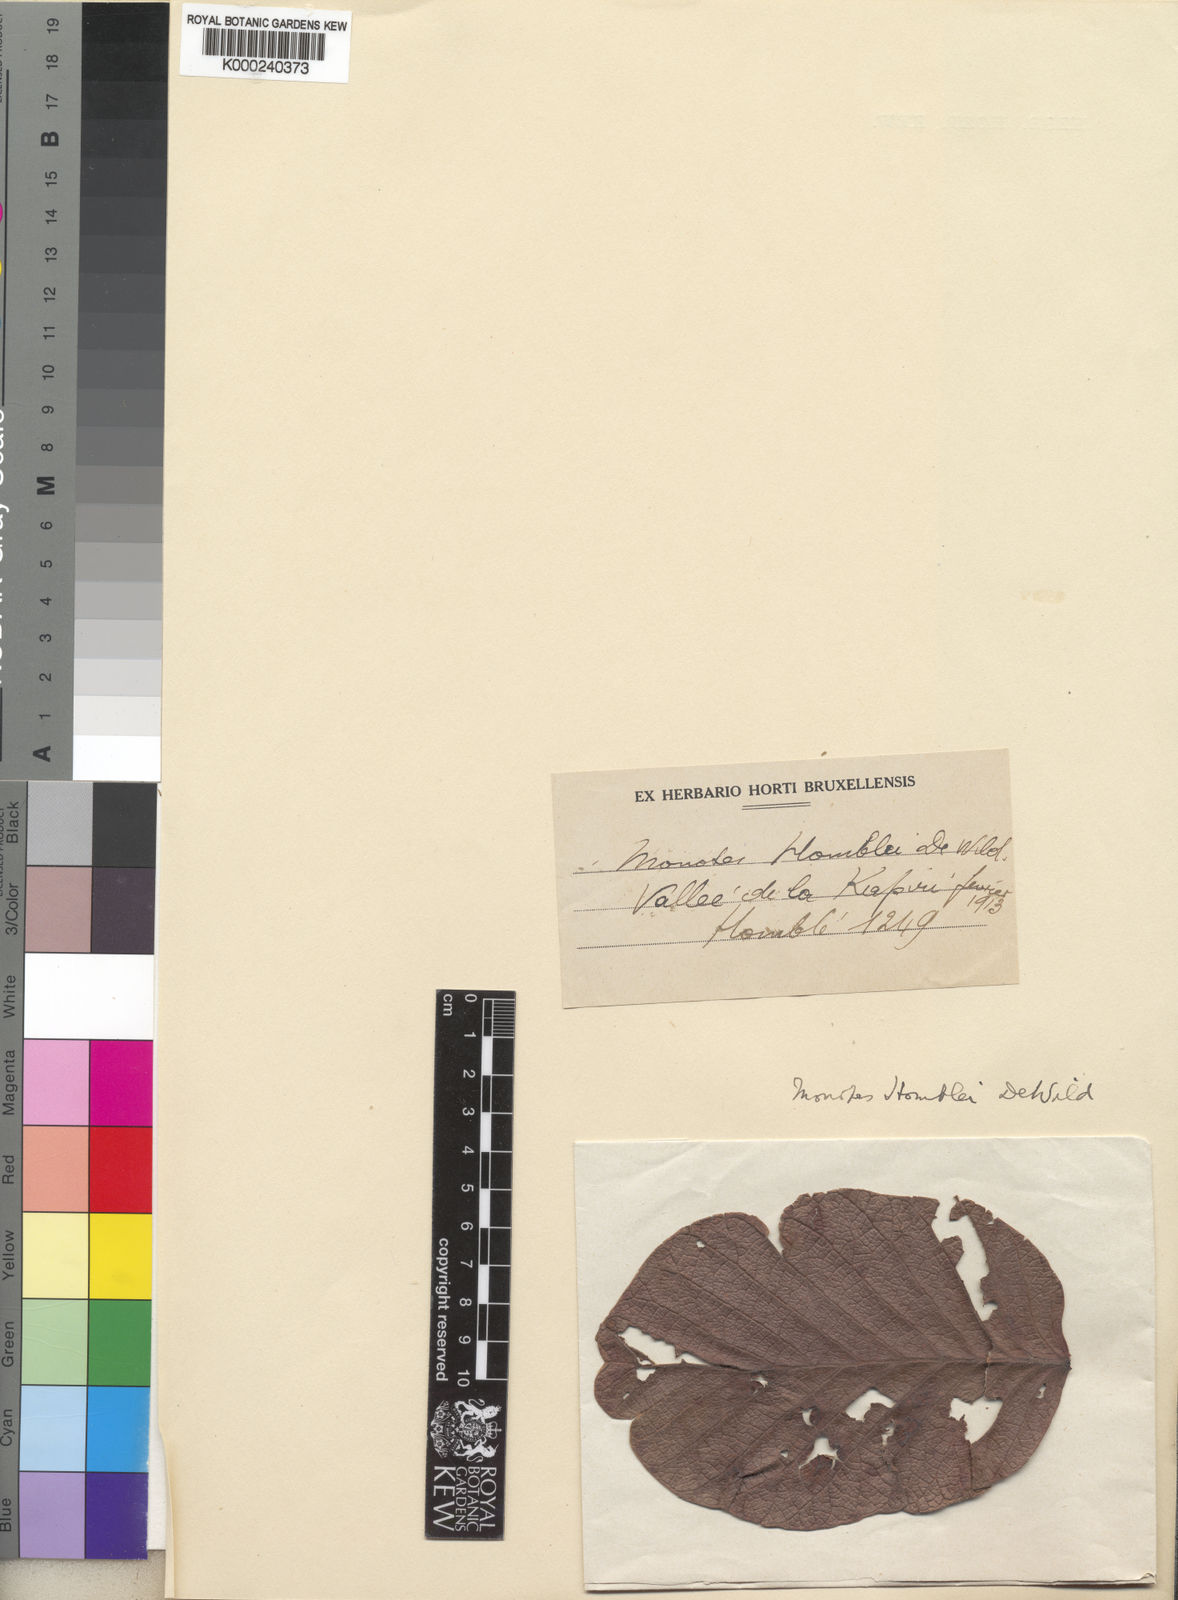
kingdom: Plantae
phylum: Tracheophyta
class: Magnoliopsida
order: Malvales
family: Dipterocarpaceae
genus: Monotes
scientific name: Monotes adenophyllus
